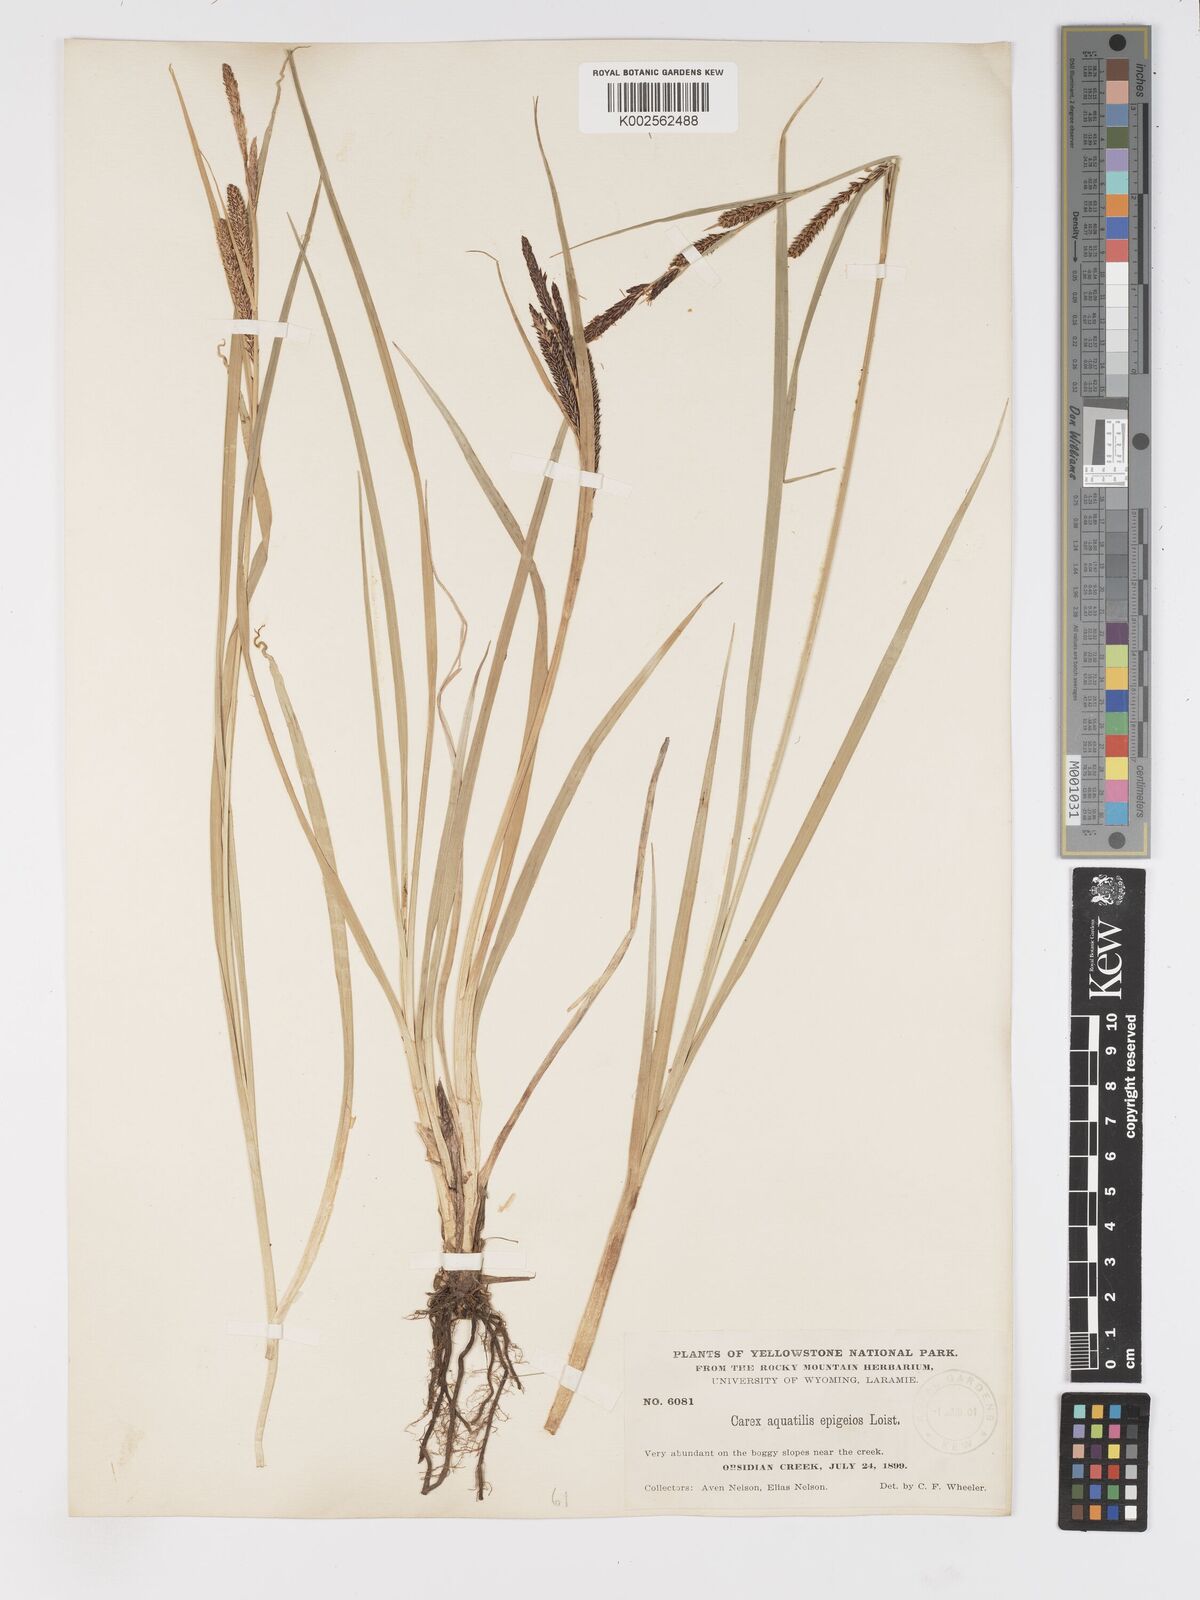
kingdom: Plantae
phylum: Tracheophyta
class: Liliopsida
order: Poales
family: Cyperaceae
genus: Carex
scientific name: Carex
